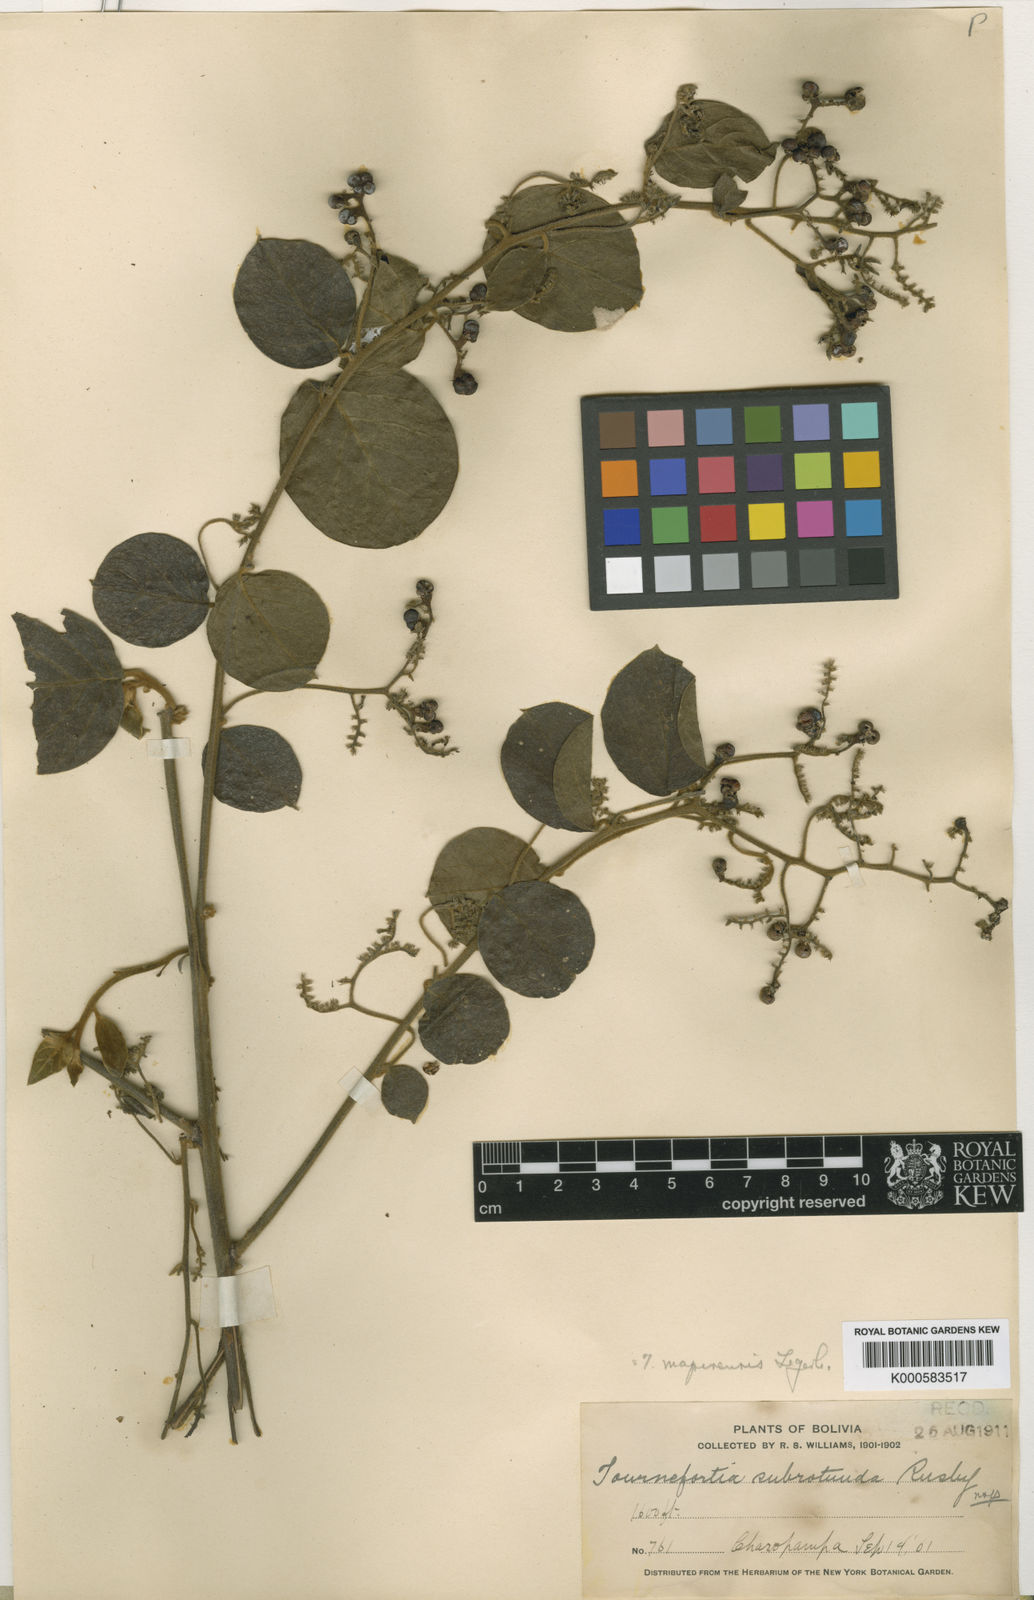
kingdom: Plantae
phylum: Tracheophyta
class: Magnoliopsida
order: Boraginales
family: Heliotropiaceae
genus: Myriopus
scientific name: Myriopus mapirensis
